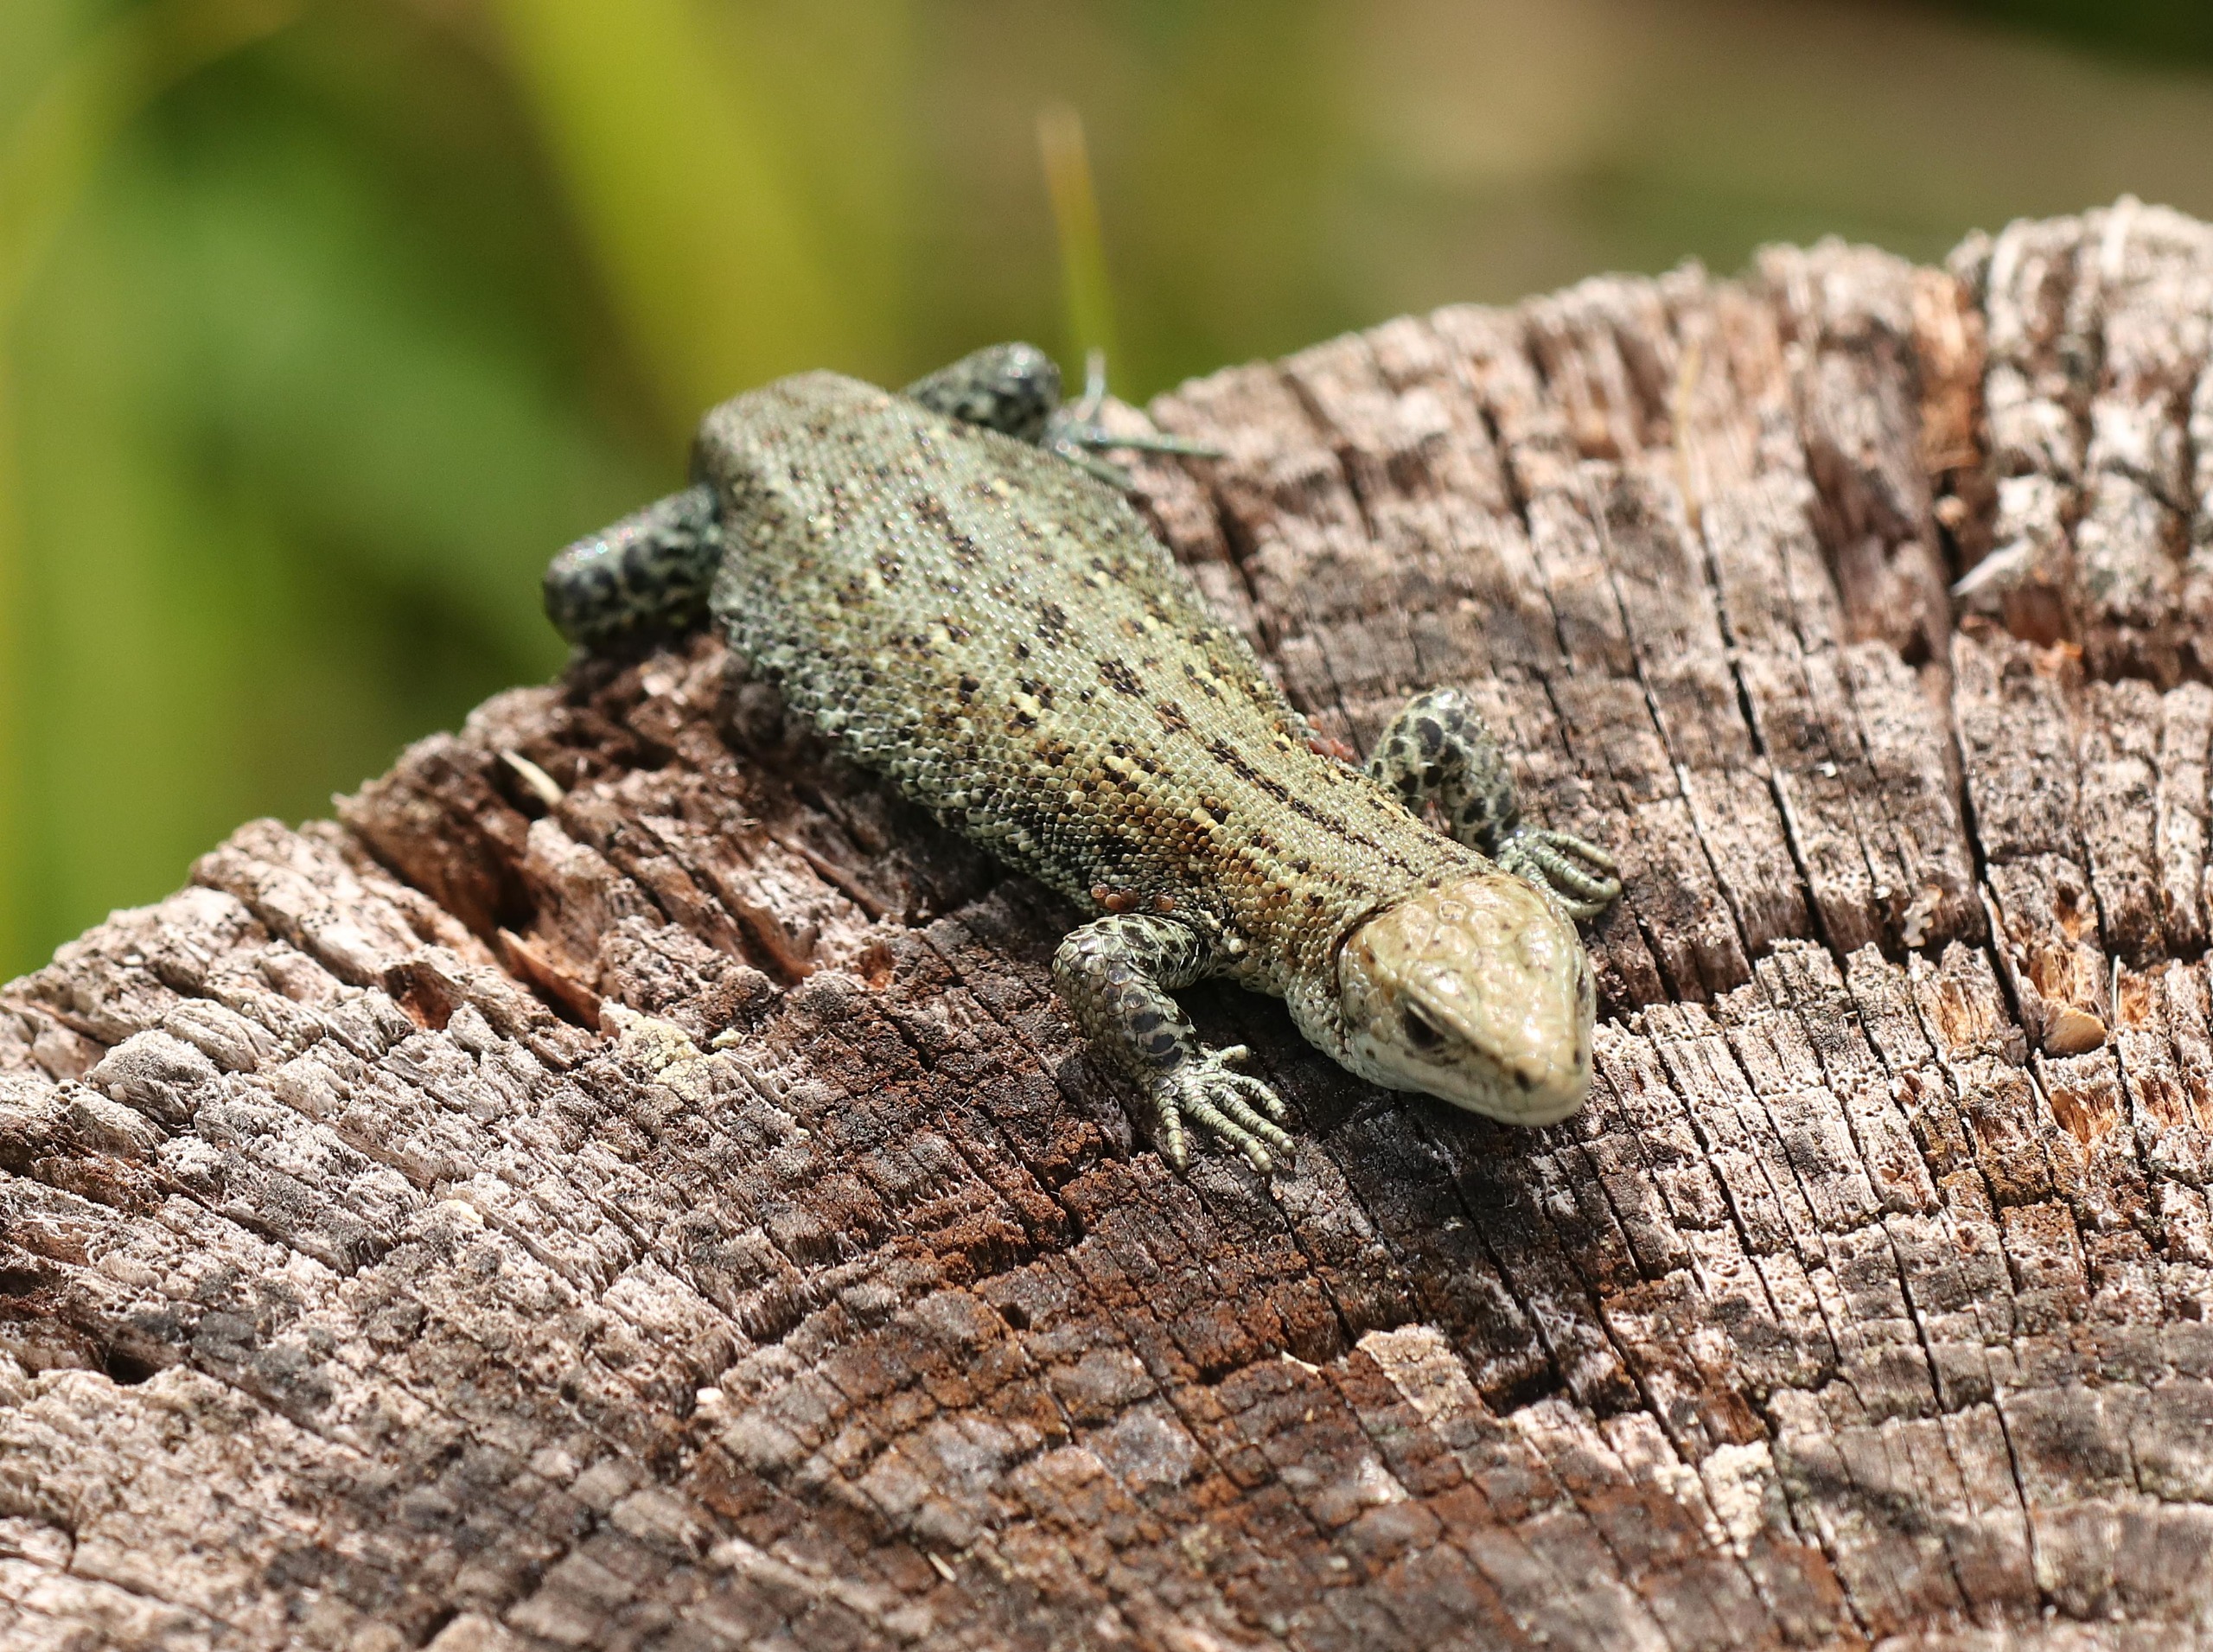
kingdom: Animalia
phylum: Chordata
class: Squamata
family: Lacertidae
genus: Zootoca
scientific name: Zootoca vivipara
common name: Skovfirben
